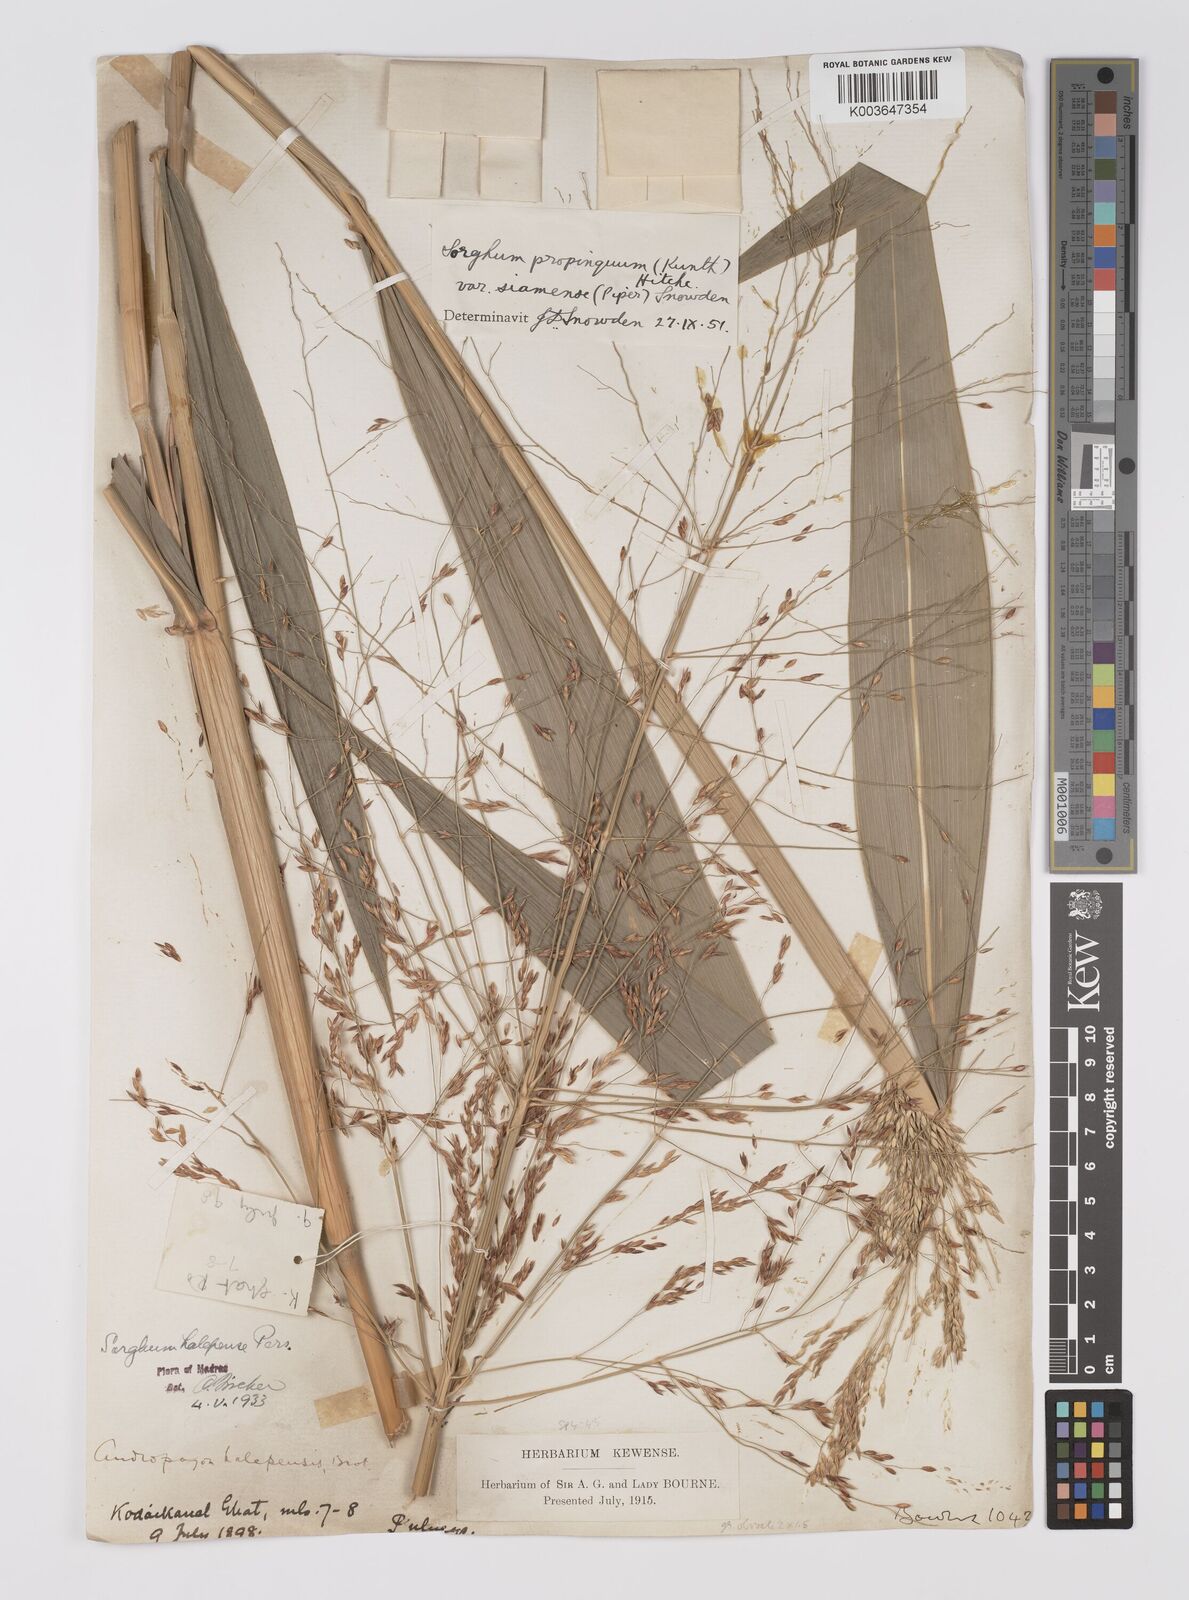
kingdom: Plantae
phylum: Tracheophyta
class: Liliopsida
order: Poales
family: Poaceae
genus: Sorghum
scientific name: Sorghum propinquum
